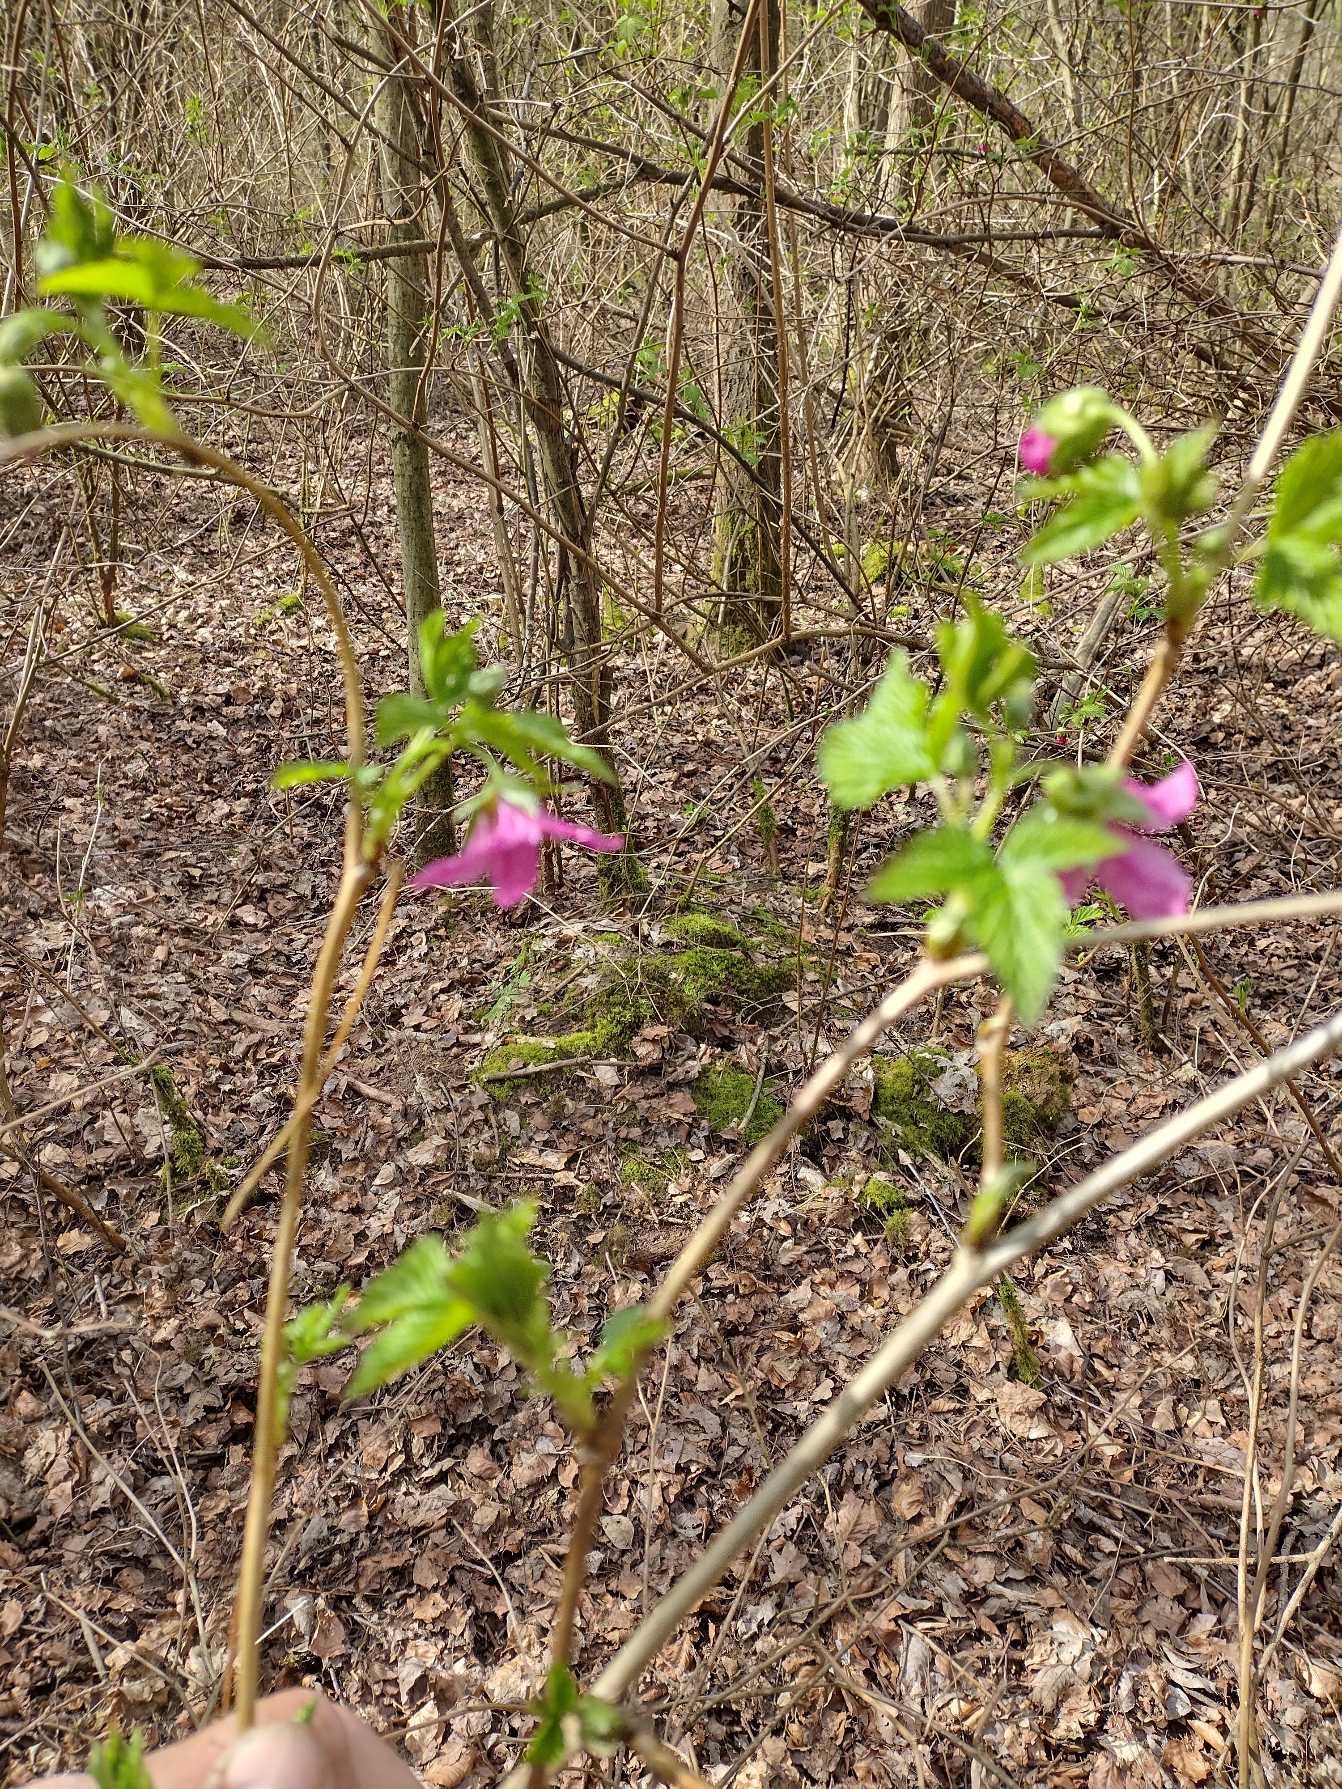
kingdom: Plantae
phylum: Tracheophyta
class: Magnoliopsida
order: Rosales
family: Rosaceae
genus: Rubus
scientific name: Rubus spectabilis
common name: Laksebær
